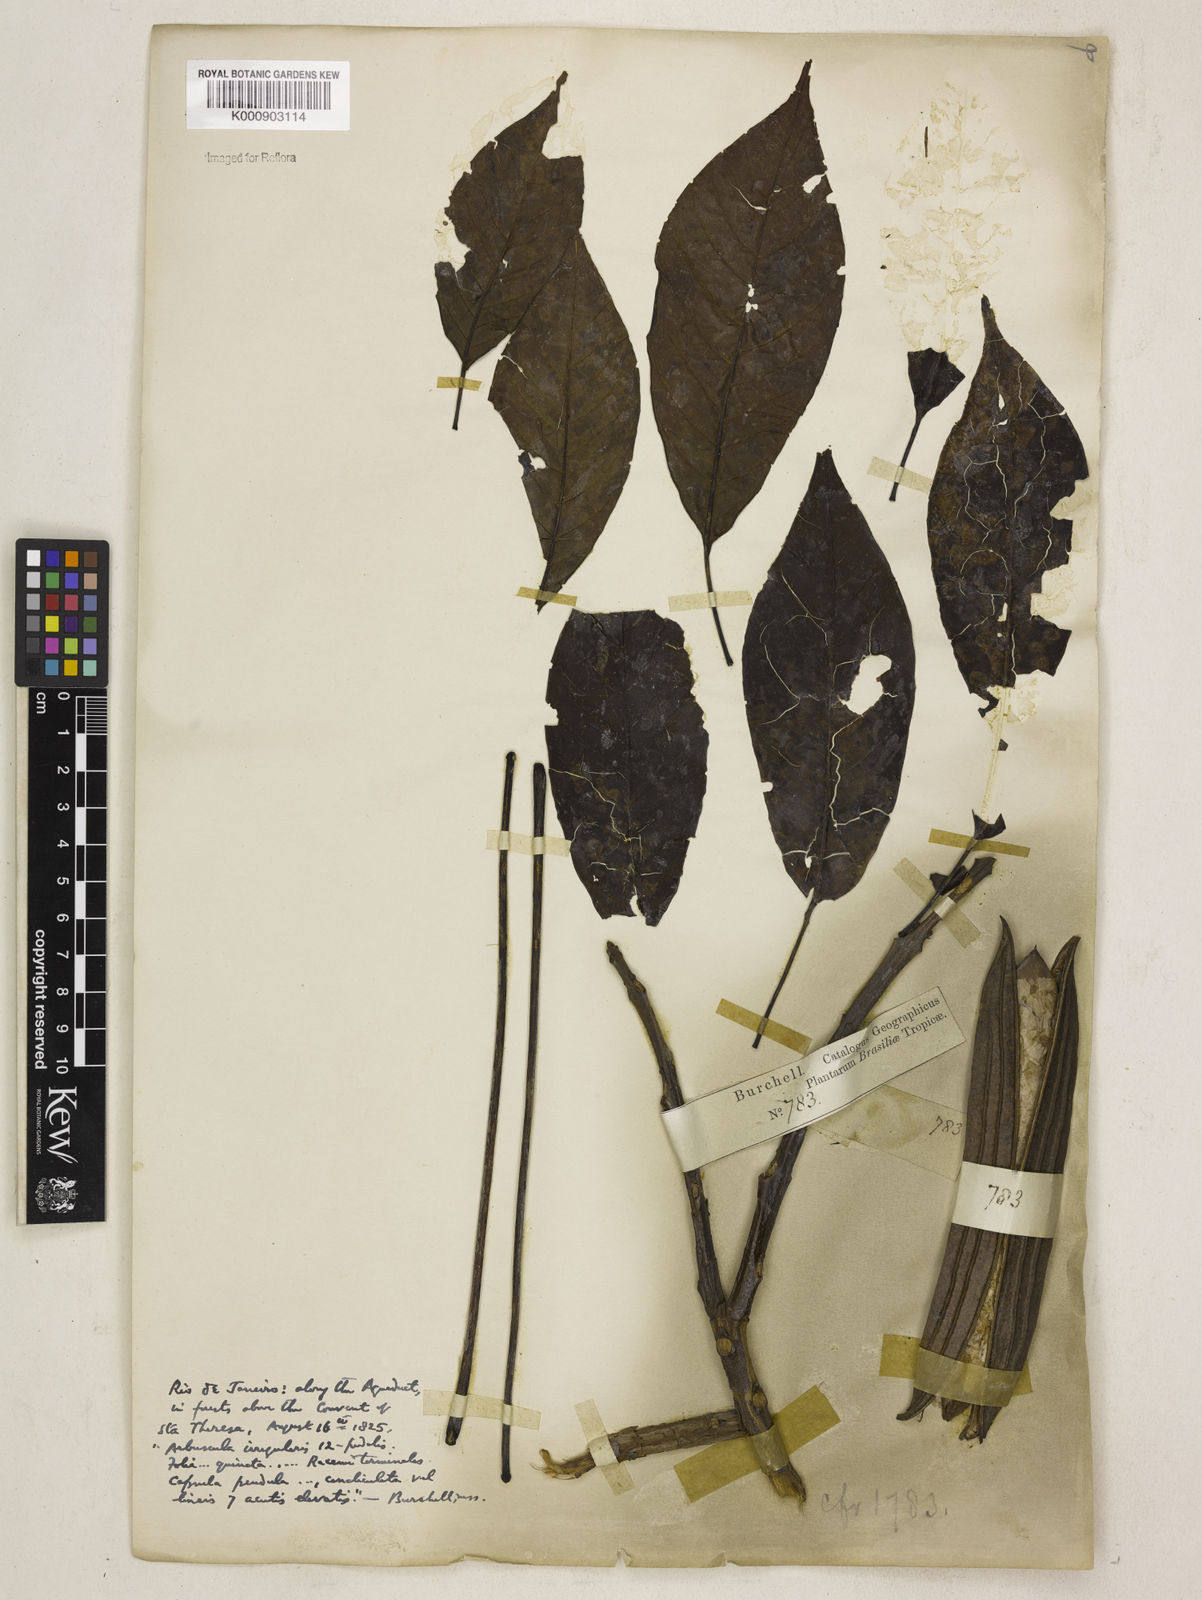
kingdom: Plantae
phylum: Tracheophyta
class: Magnoliopsida
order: Lamiales
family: Bignoniaceae
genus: Cybistax
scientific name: Cybistax antisyphilitica
